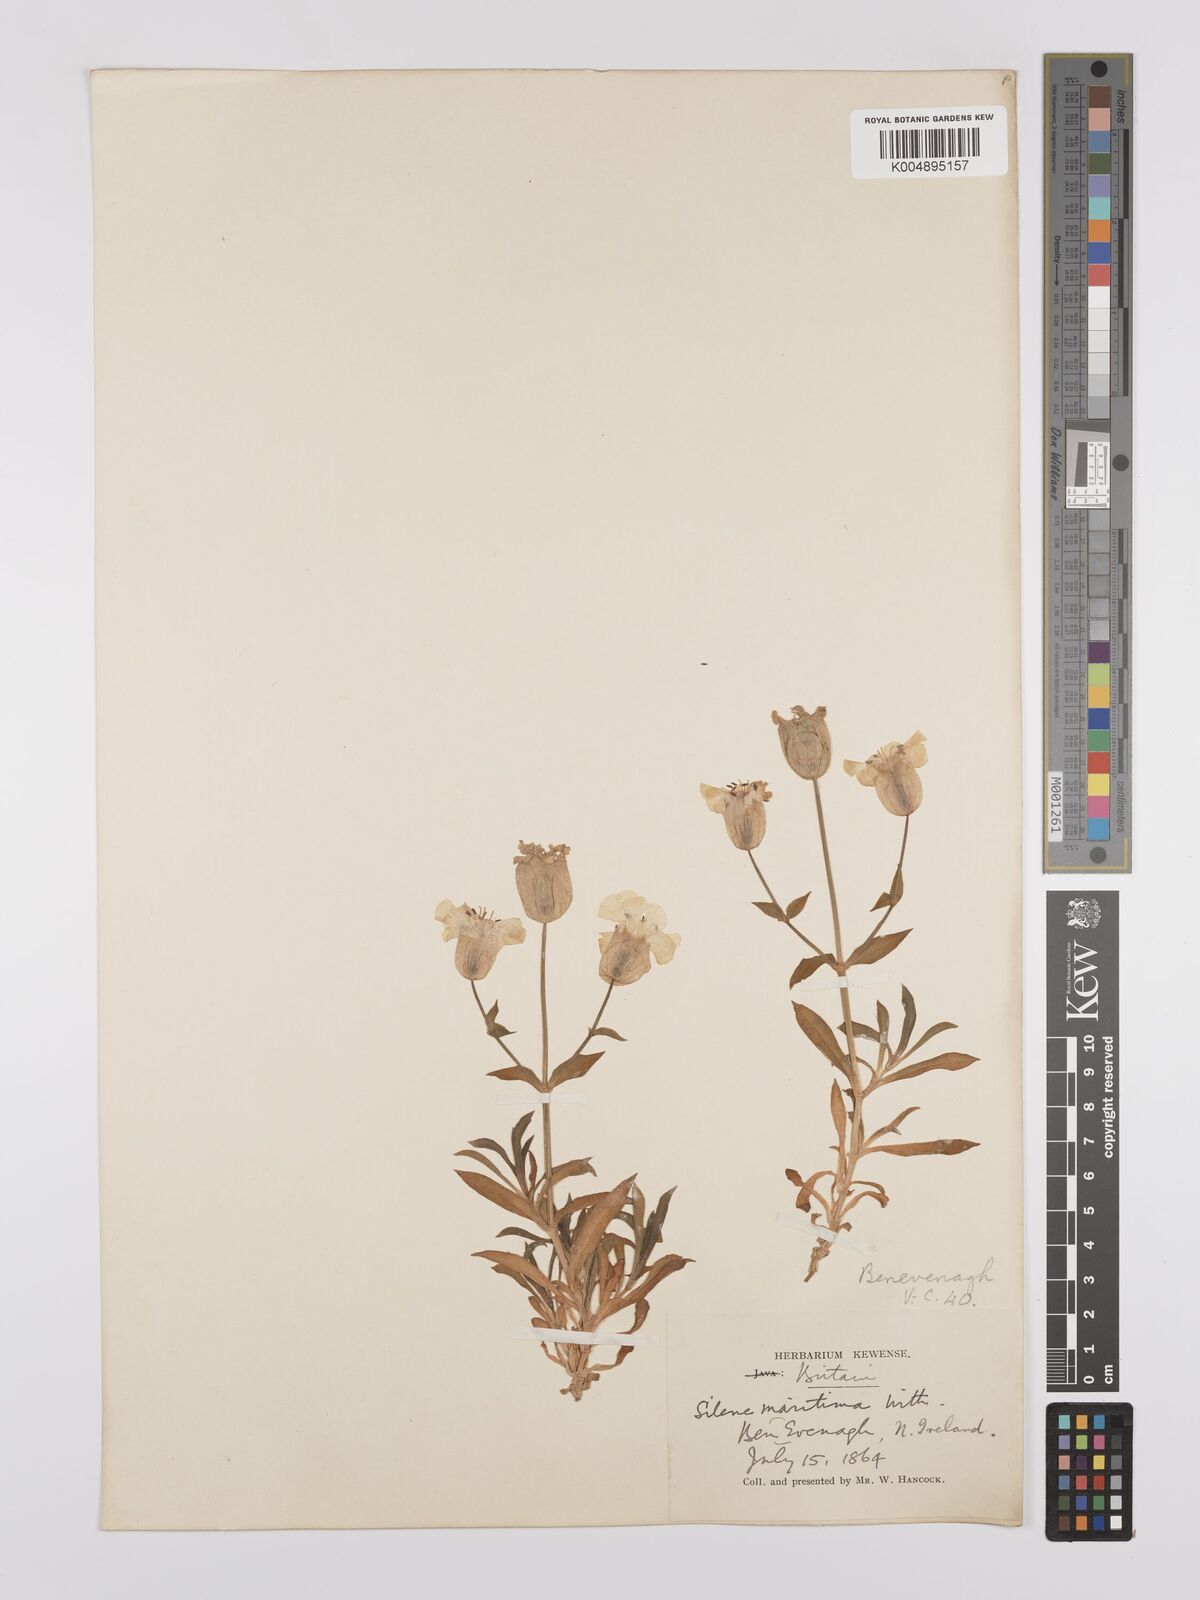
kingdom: Plantae
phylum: Tracheophyta
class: Magnoliopsida
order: Caryophyllales
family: Caryophyllaceae
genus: Silene
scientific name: Silene uniflora
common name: Sea campion
